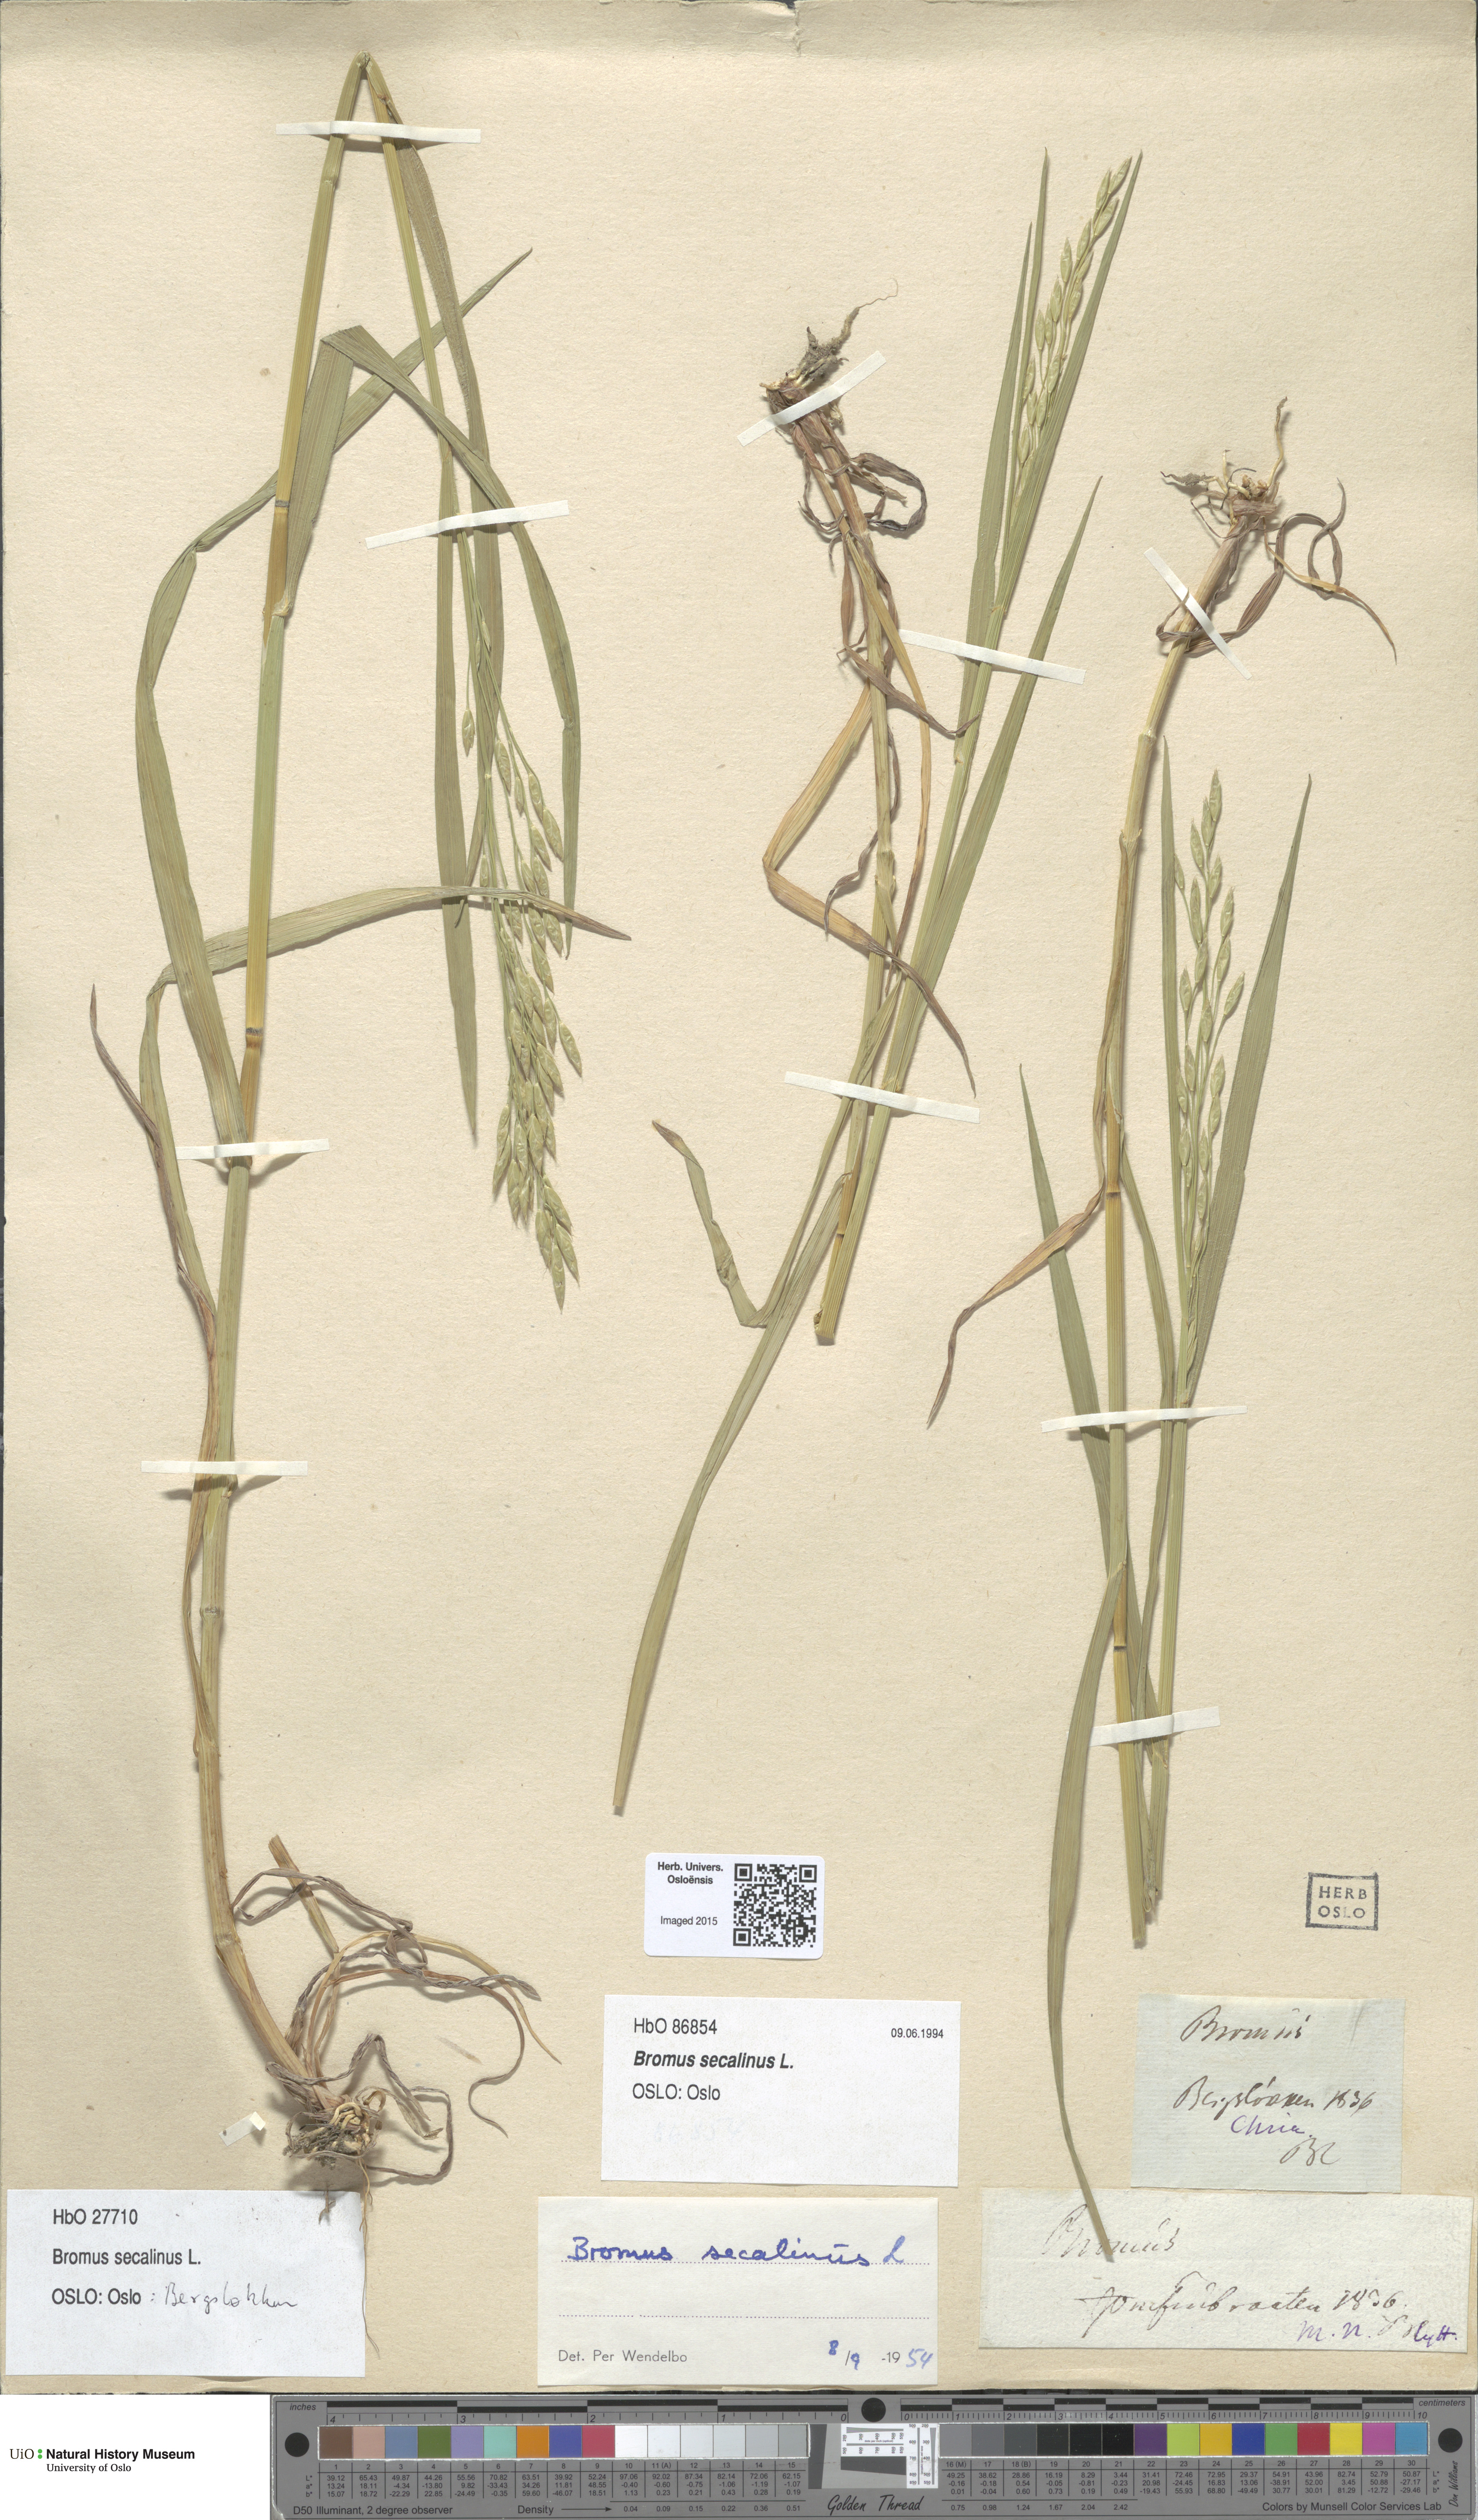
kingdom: Plantae
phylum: Tracheophyta
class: Liliopsida
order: Poales
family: Poaceae
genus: Bromus
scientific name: Bromus secalinus
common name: Rye brome
